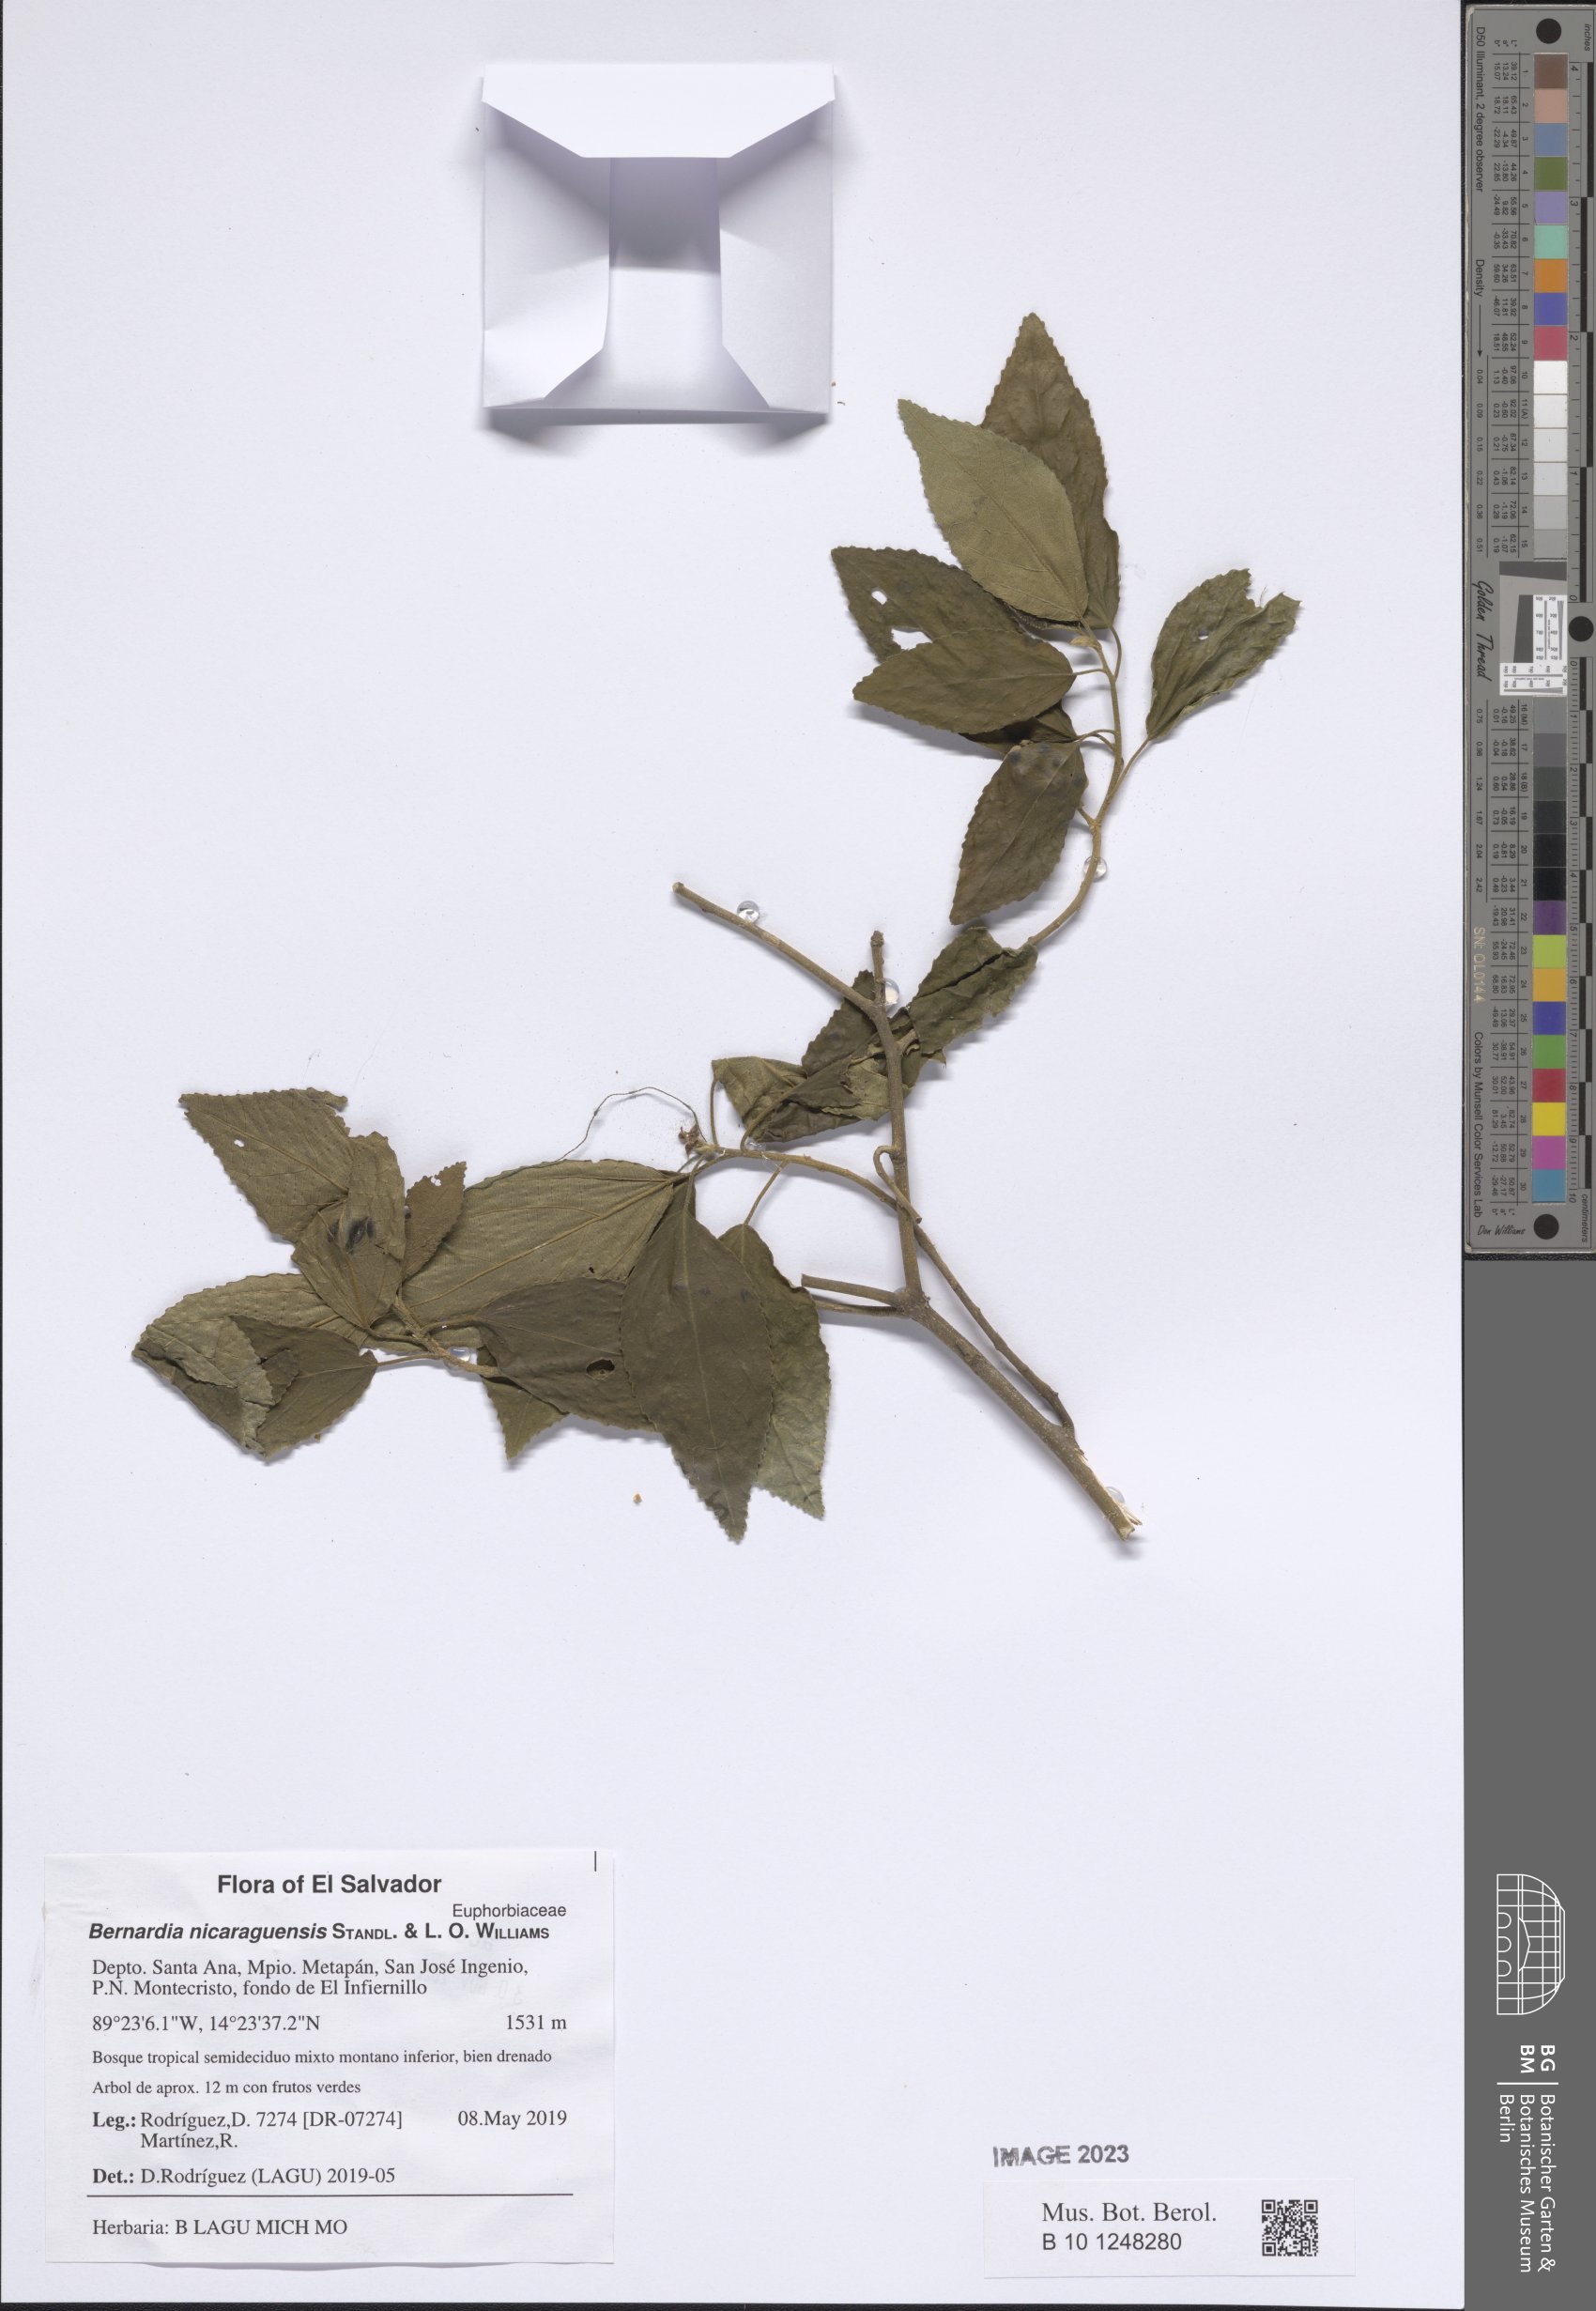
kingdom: Plantae
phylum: Tracheophyta
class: Magnoliopsida
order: Malpighiales
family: Euphorbiaceae
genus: Bernardia
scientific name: Bernardia nicaraguensis
